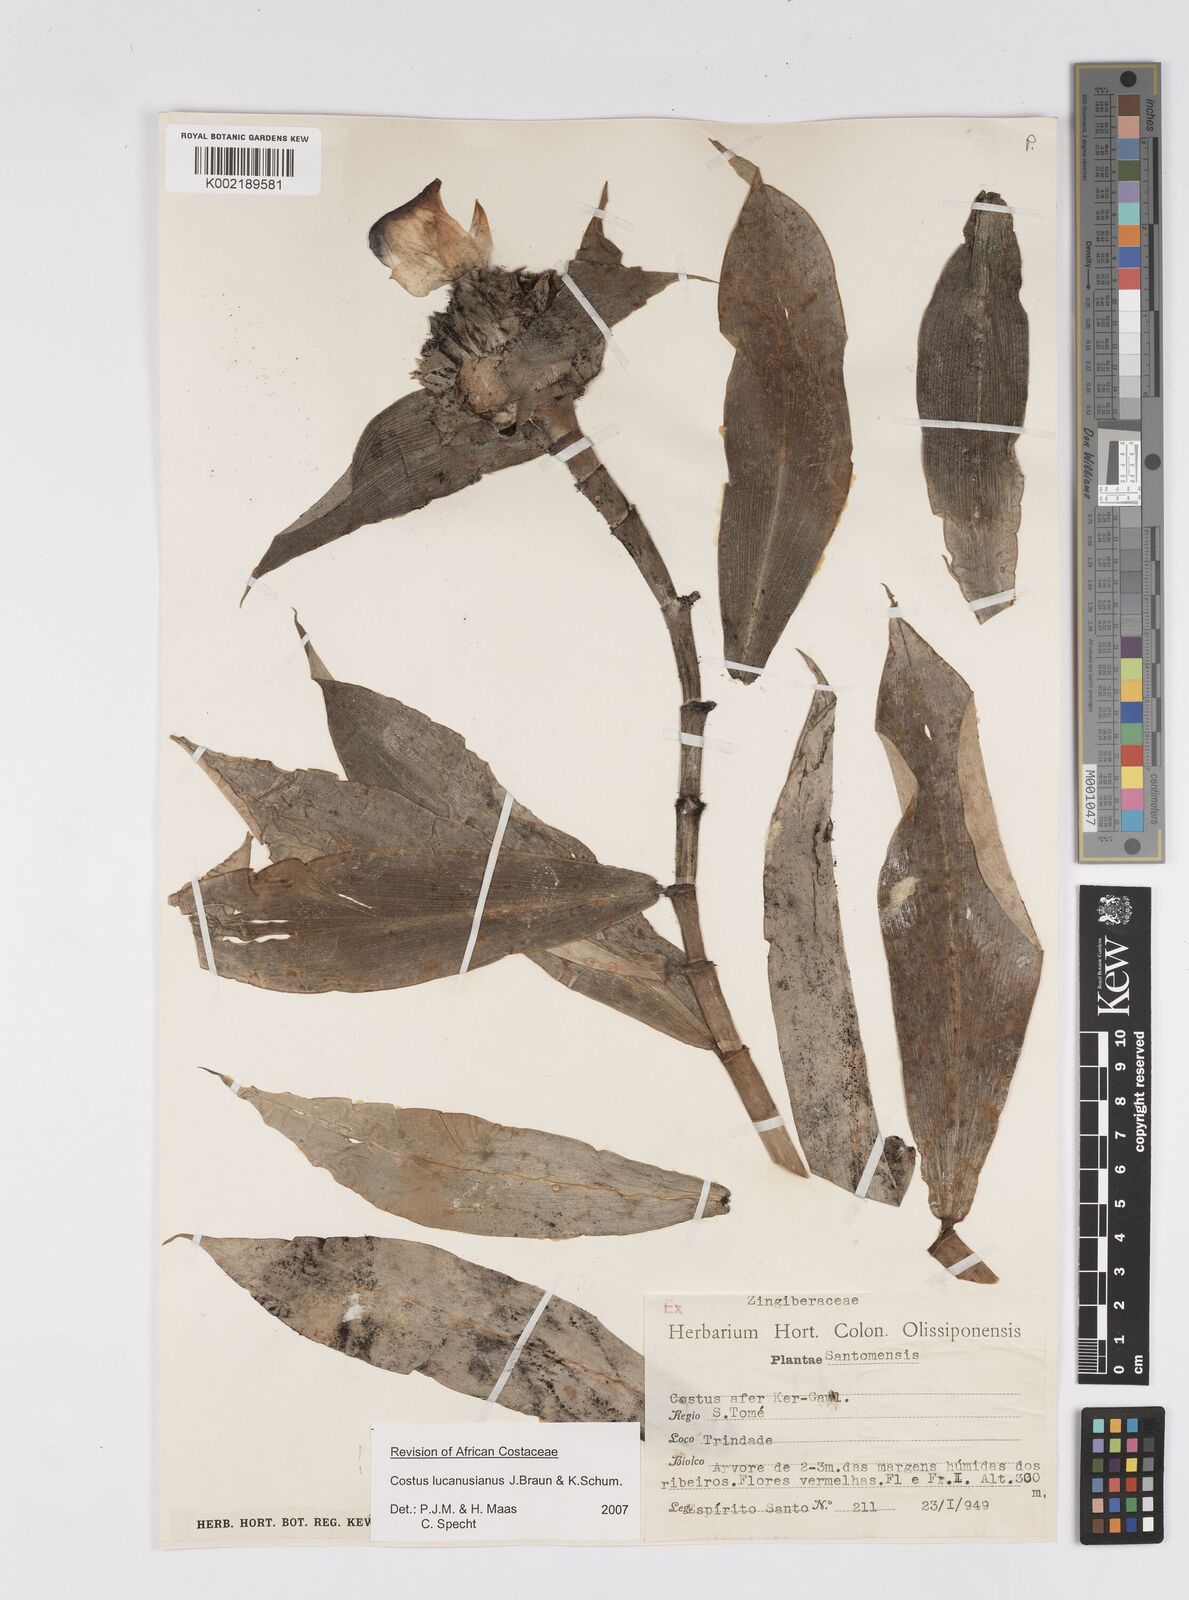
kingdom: Plantae
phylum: Tracheophyta
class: Liliopsida
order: Zingiberales
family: Costaceae
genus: Costus
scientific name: Costus lucanusianus
